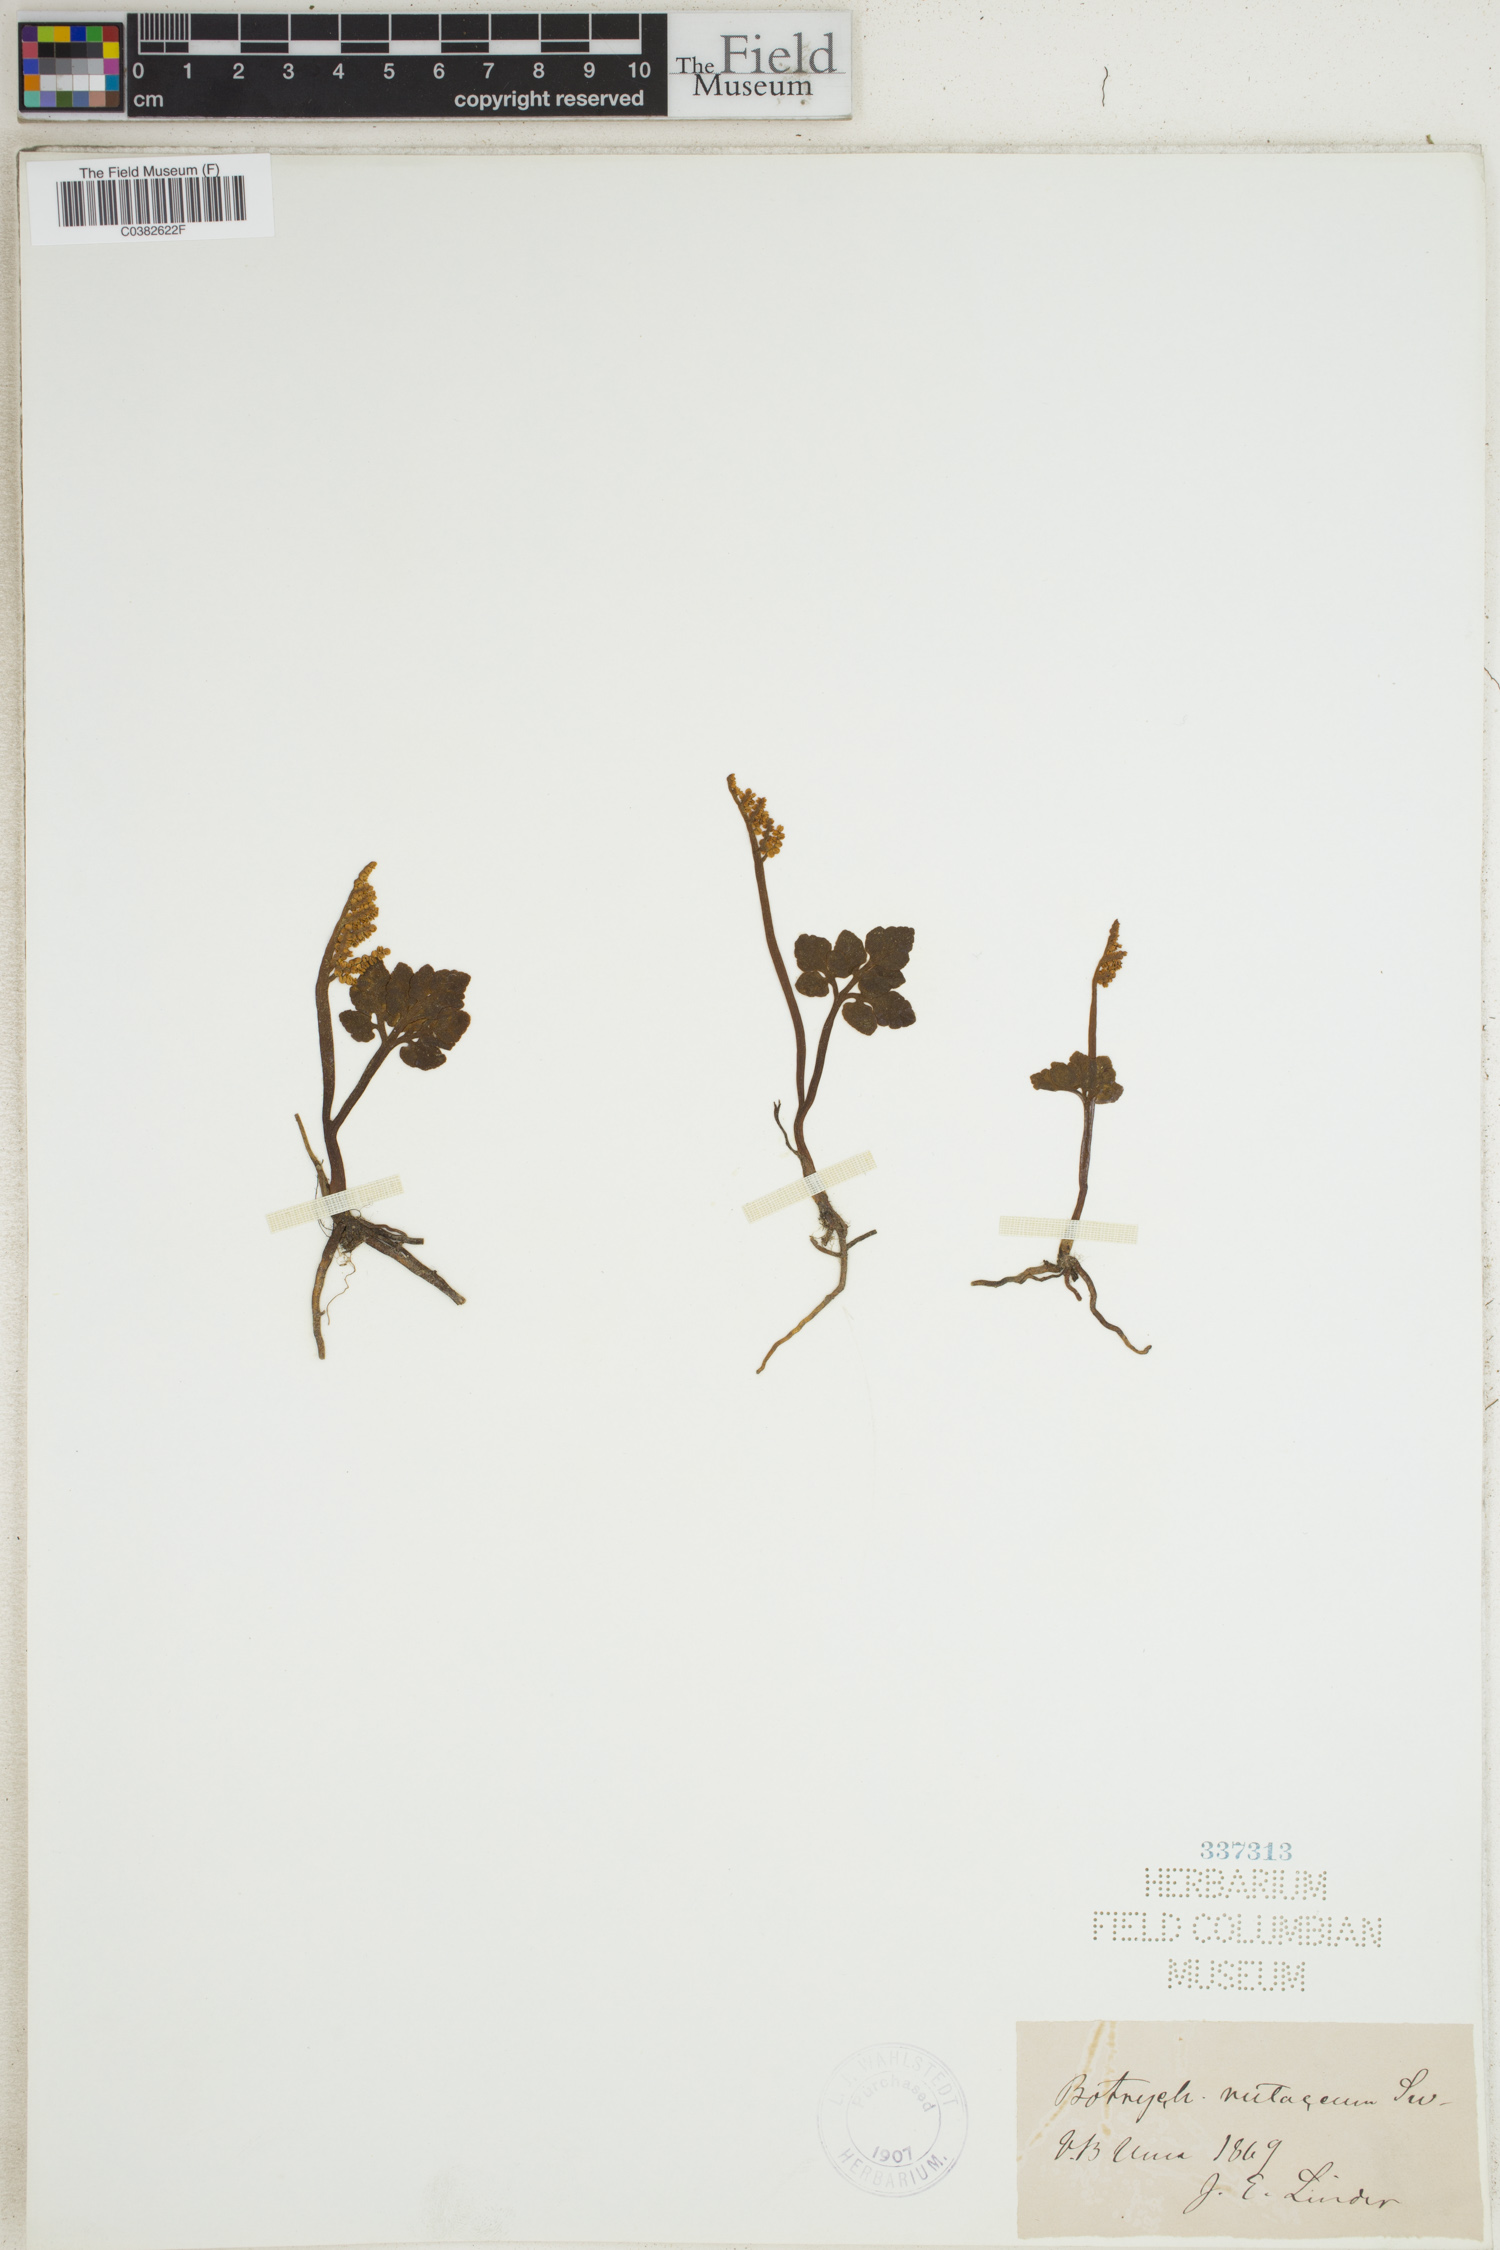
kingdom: Plantae
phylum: Tracheophyta
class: Polypodiopsida
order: Ophioglossales
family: Ophioglossaceae
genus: Botrychium
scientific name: Botrychium matricariifolium
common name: Branched moonwort
